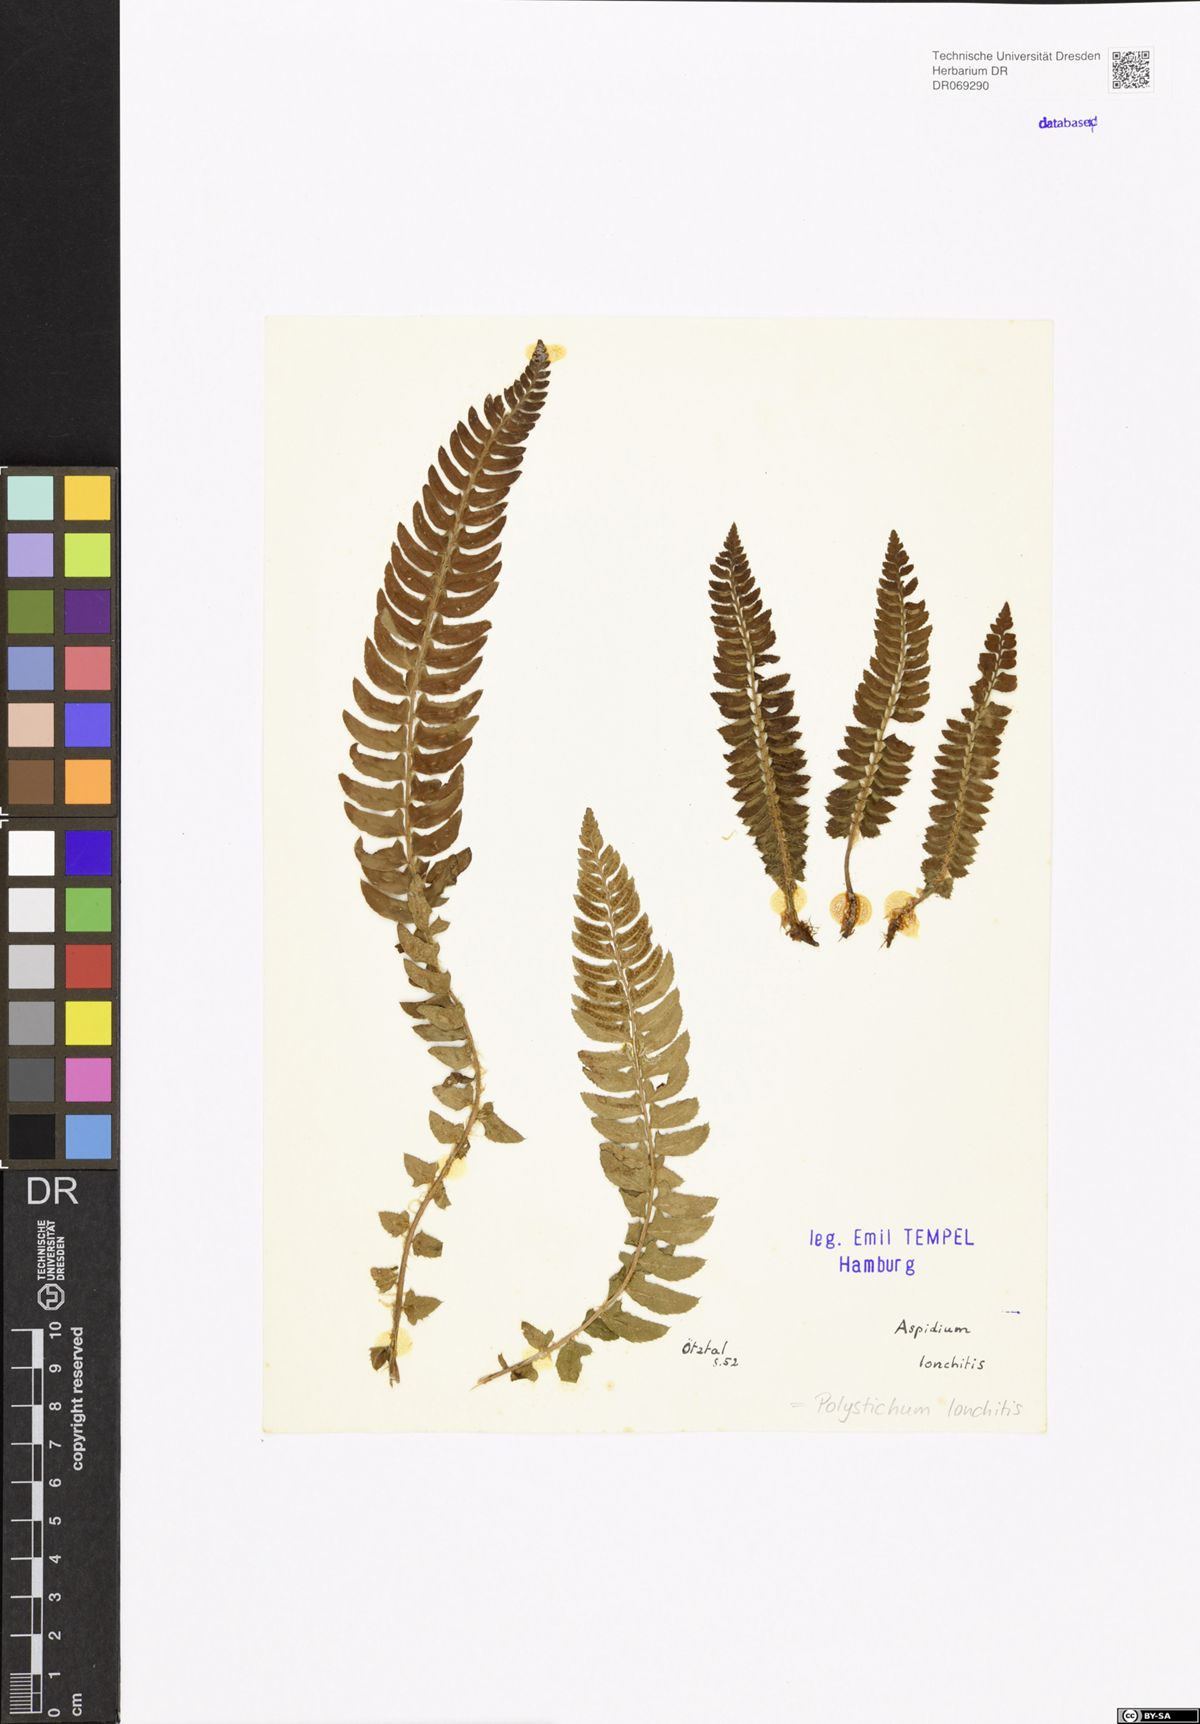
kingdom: Plantae
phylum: Tracheophyta
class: Polypodiopsida
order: Polypodiales
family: Dryopteridaceae
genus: Polystichum
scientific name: Polystichum lonchitis
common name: Holly fern
